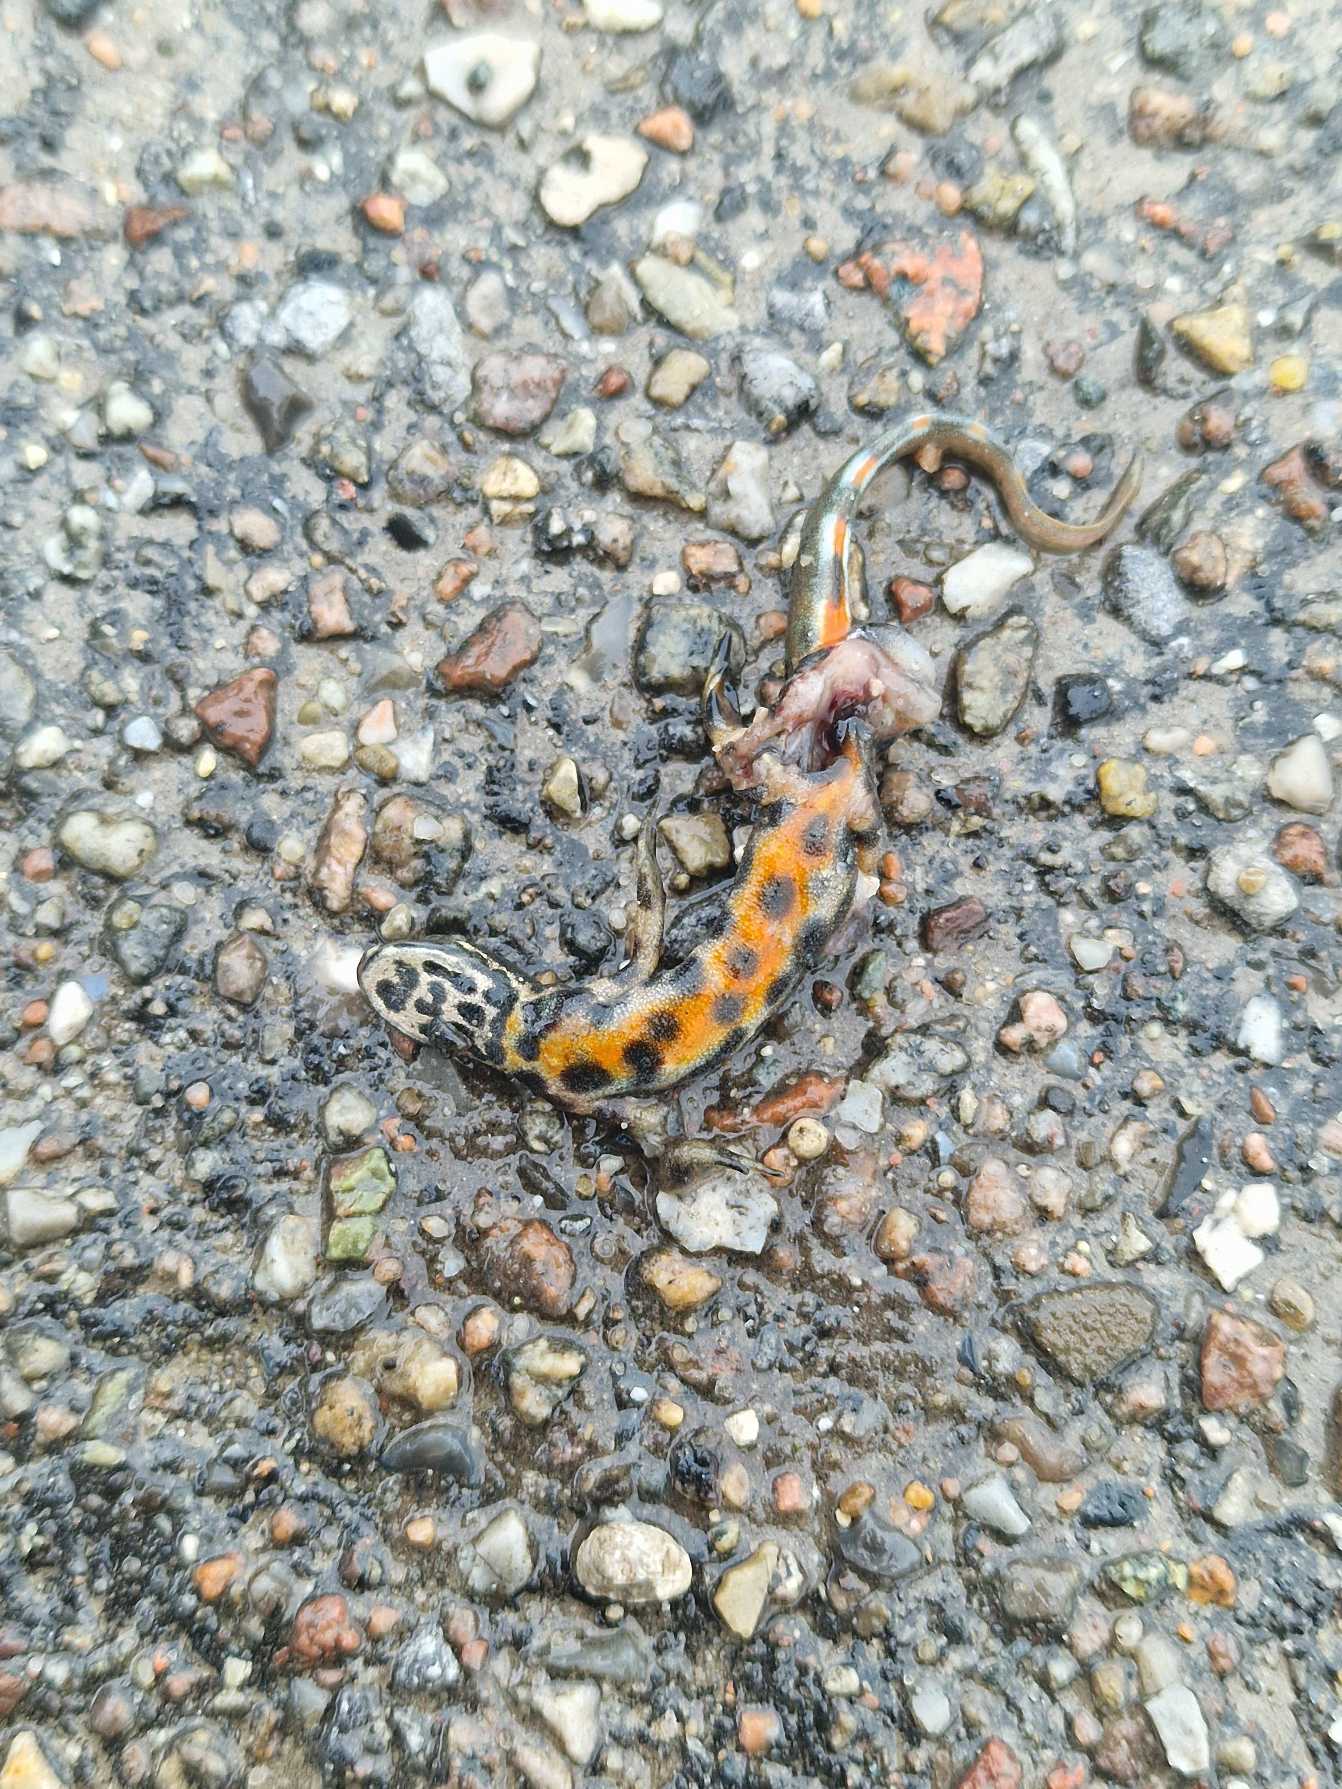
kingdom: Animalia
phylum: Chordata
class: Amphibia
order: Caudata
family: Salamandridae
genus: Lissotriton
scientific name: Lissotriton vulgaris
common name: Lille vandsalamander
